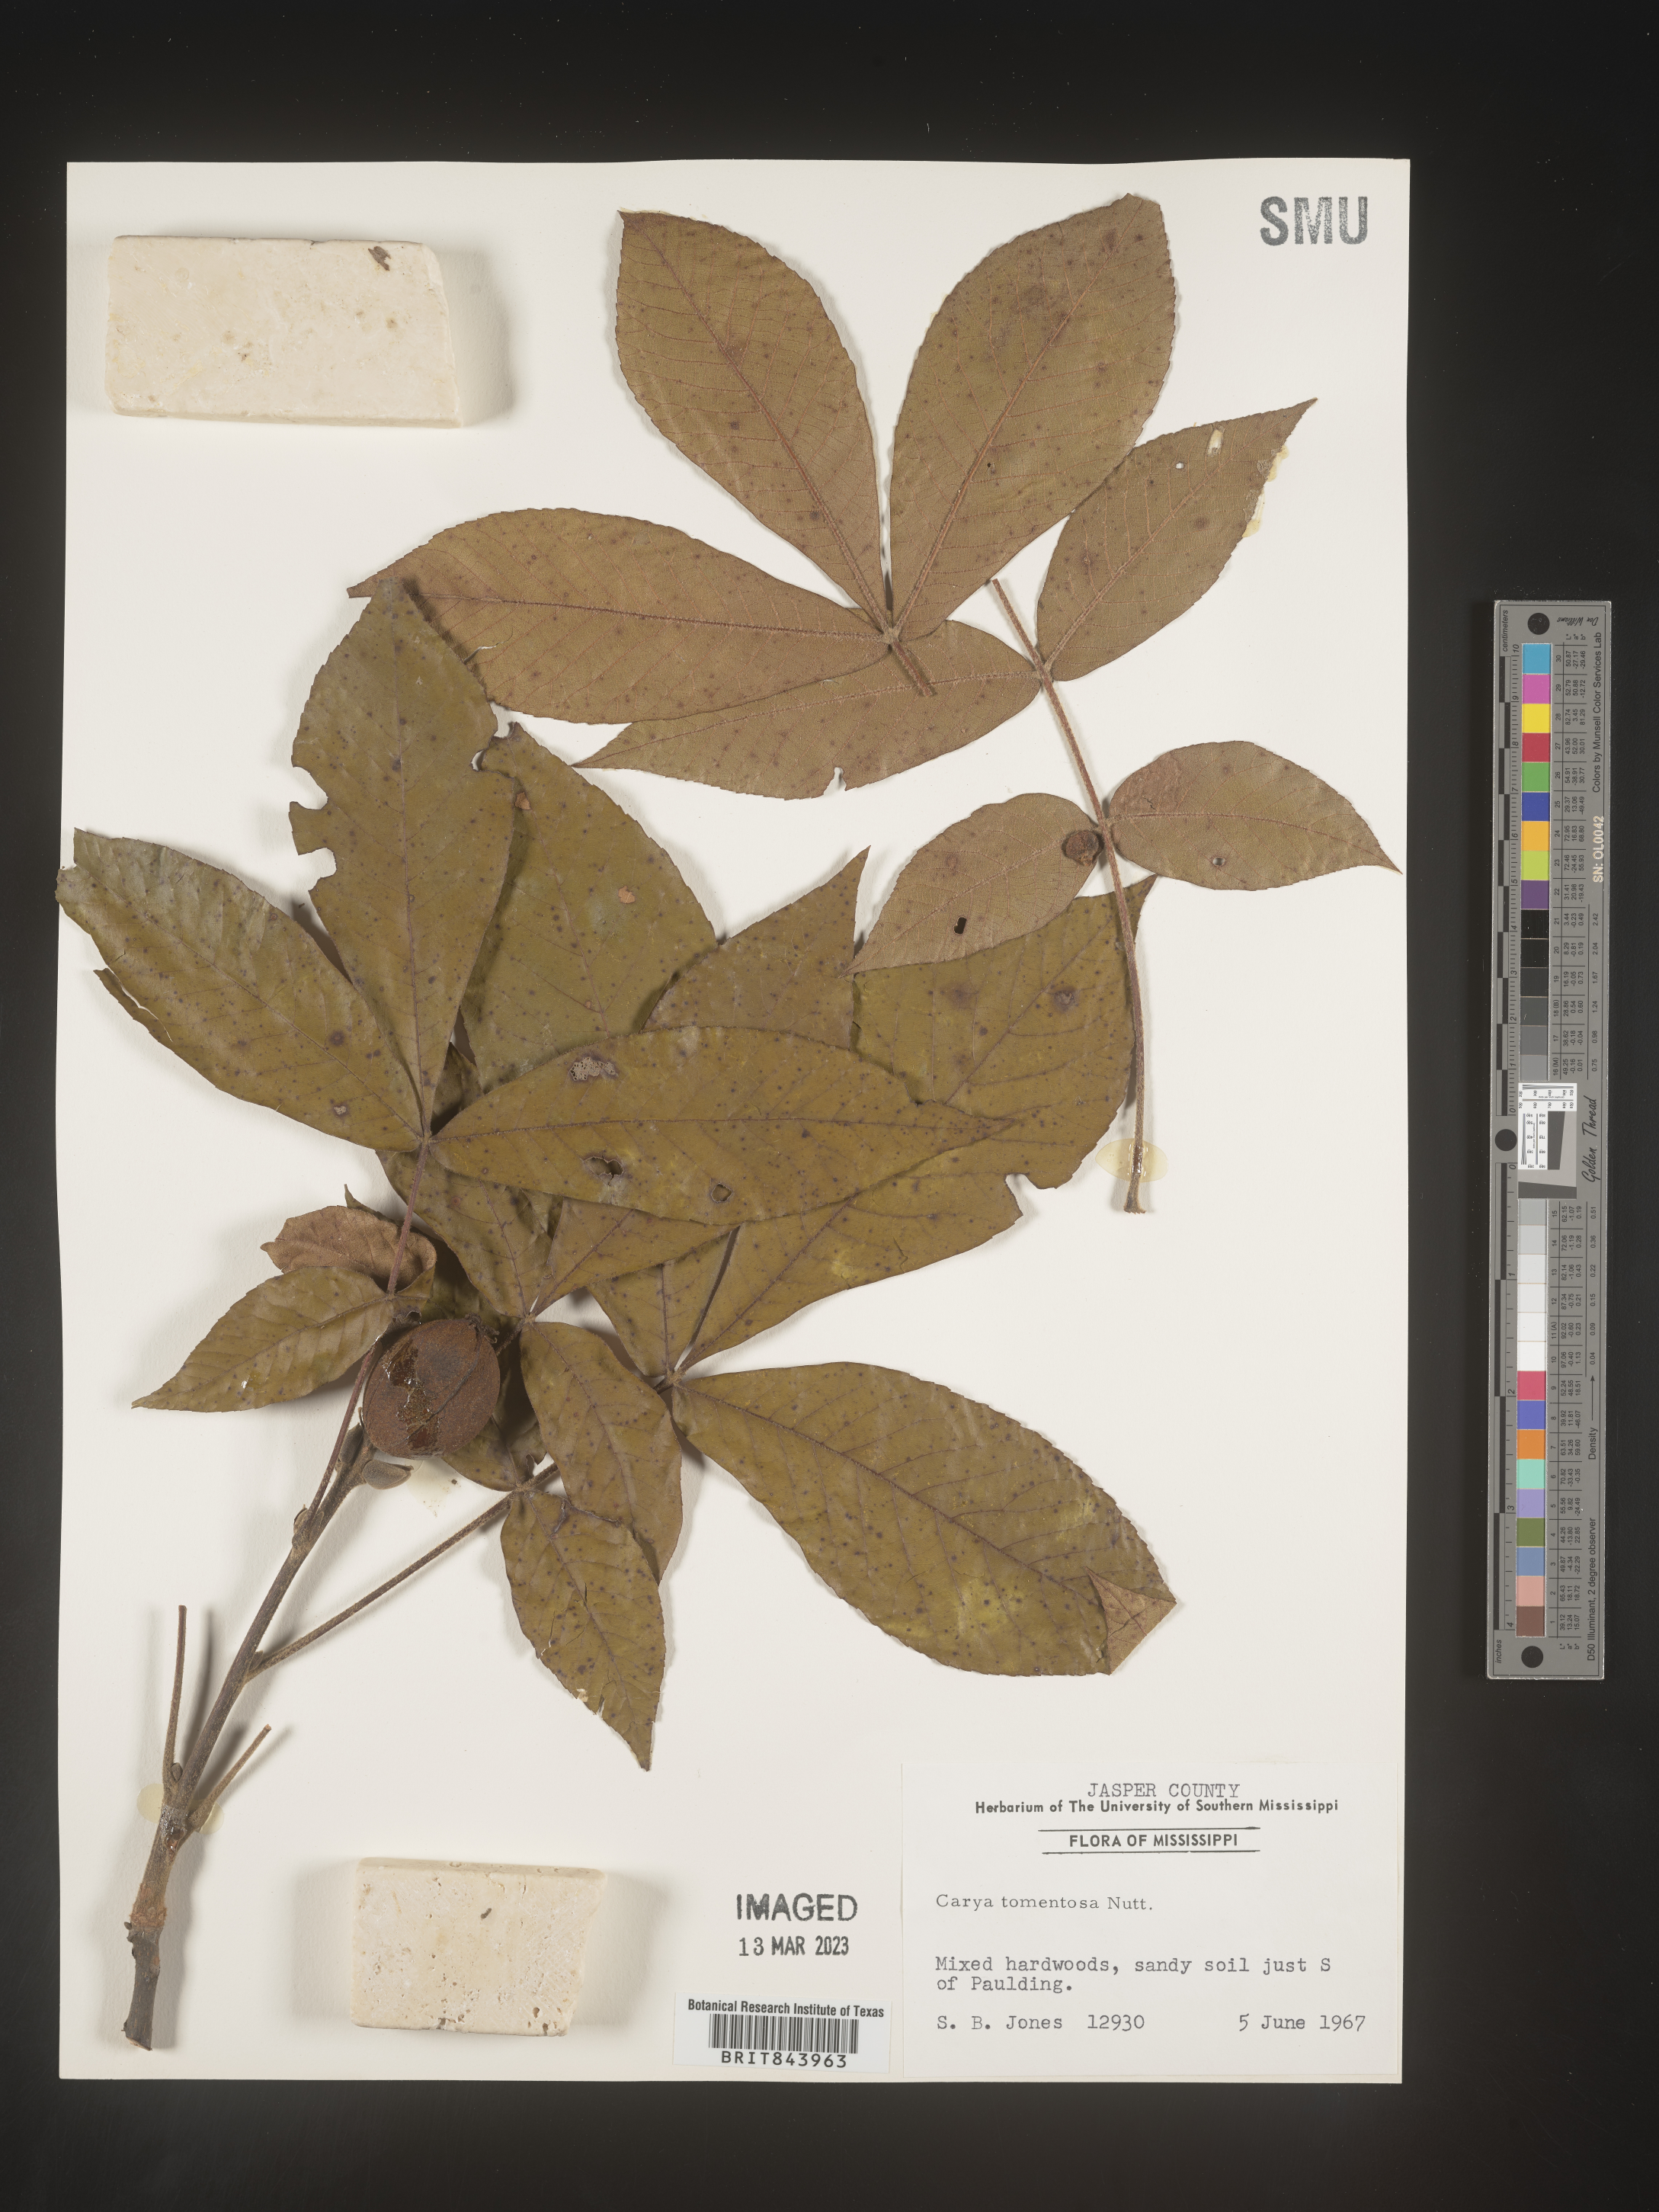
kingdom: Plantae
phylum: Tracheophyta
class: Magnoliopsida
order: Fagales
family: Juglandaceae
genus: Carya
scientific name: Carya alba
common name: Mockernut hickory
